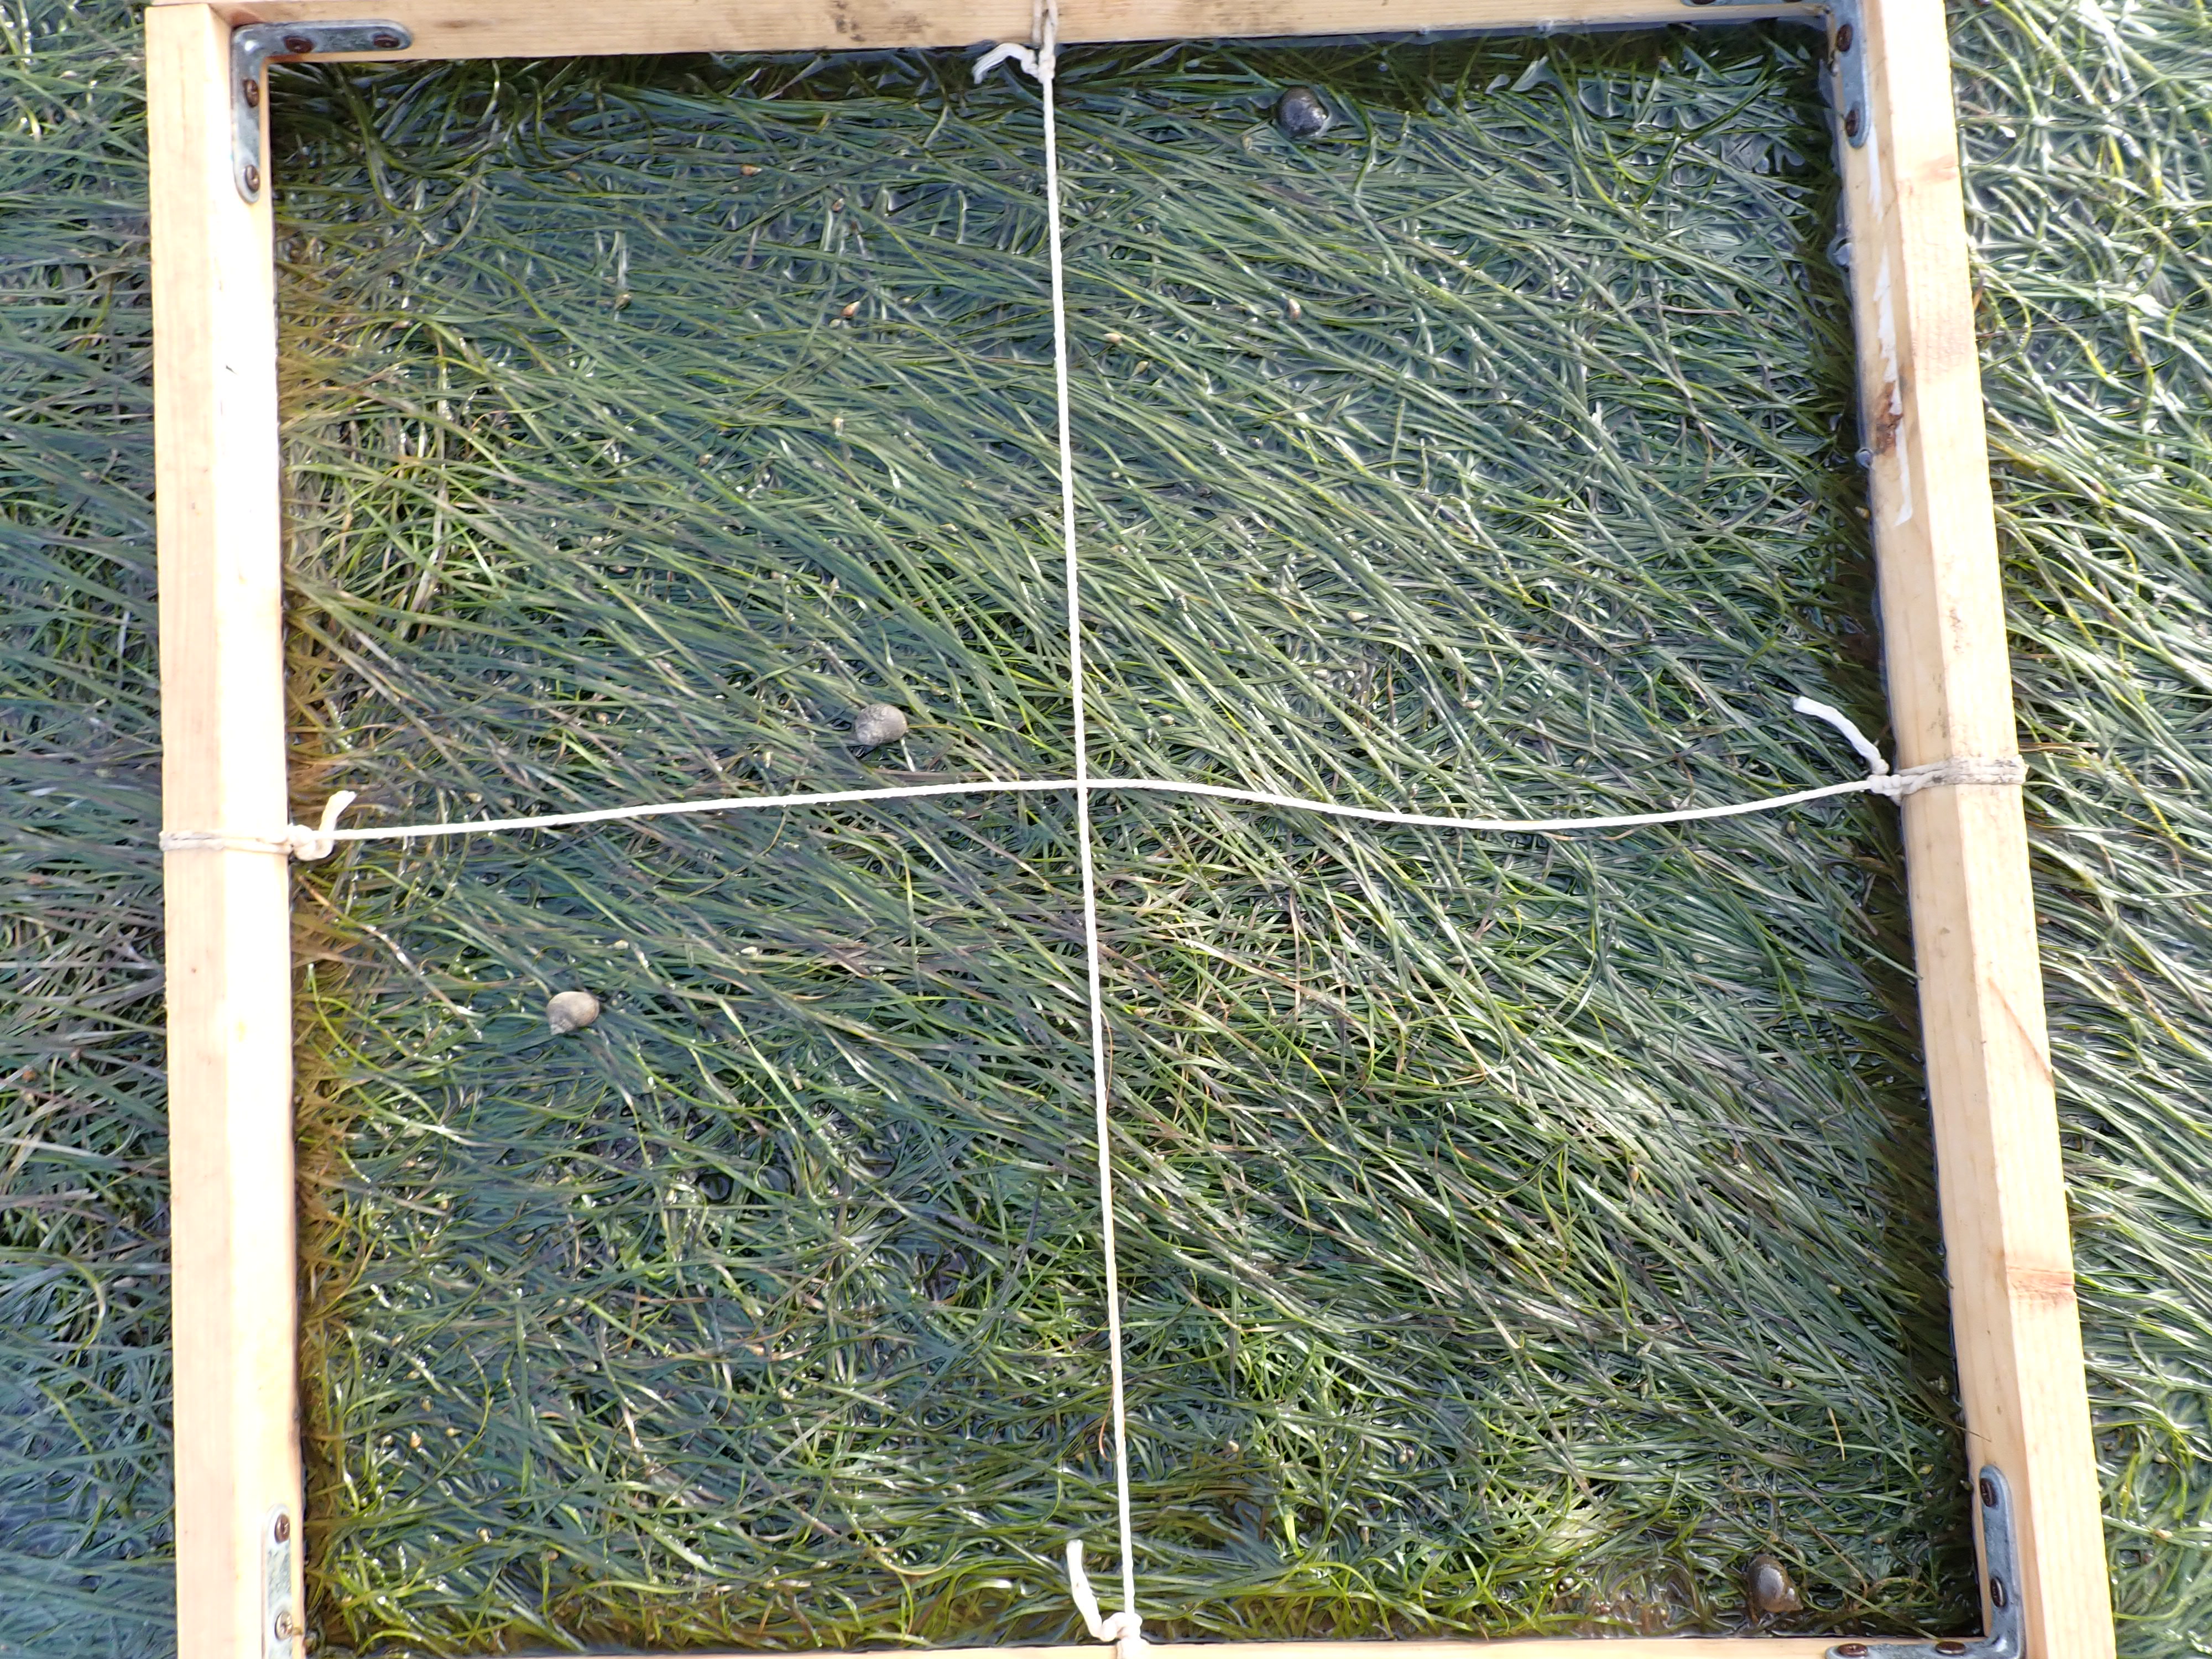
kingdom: Plantae
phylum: Tracheophyta
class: Liliopsida
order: Alismatales
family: Zosteraceae
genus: Zostera
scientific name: Zostera noltii
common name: Dwarf eelgrass
